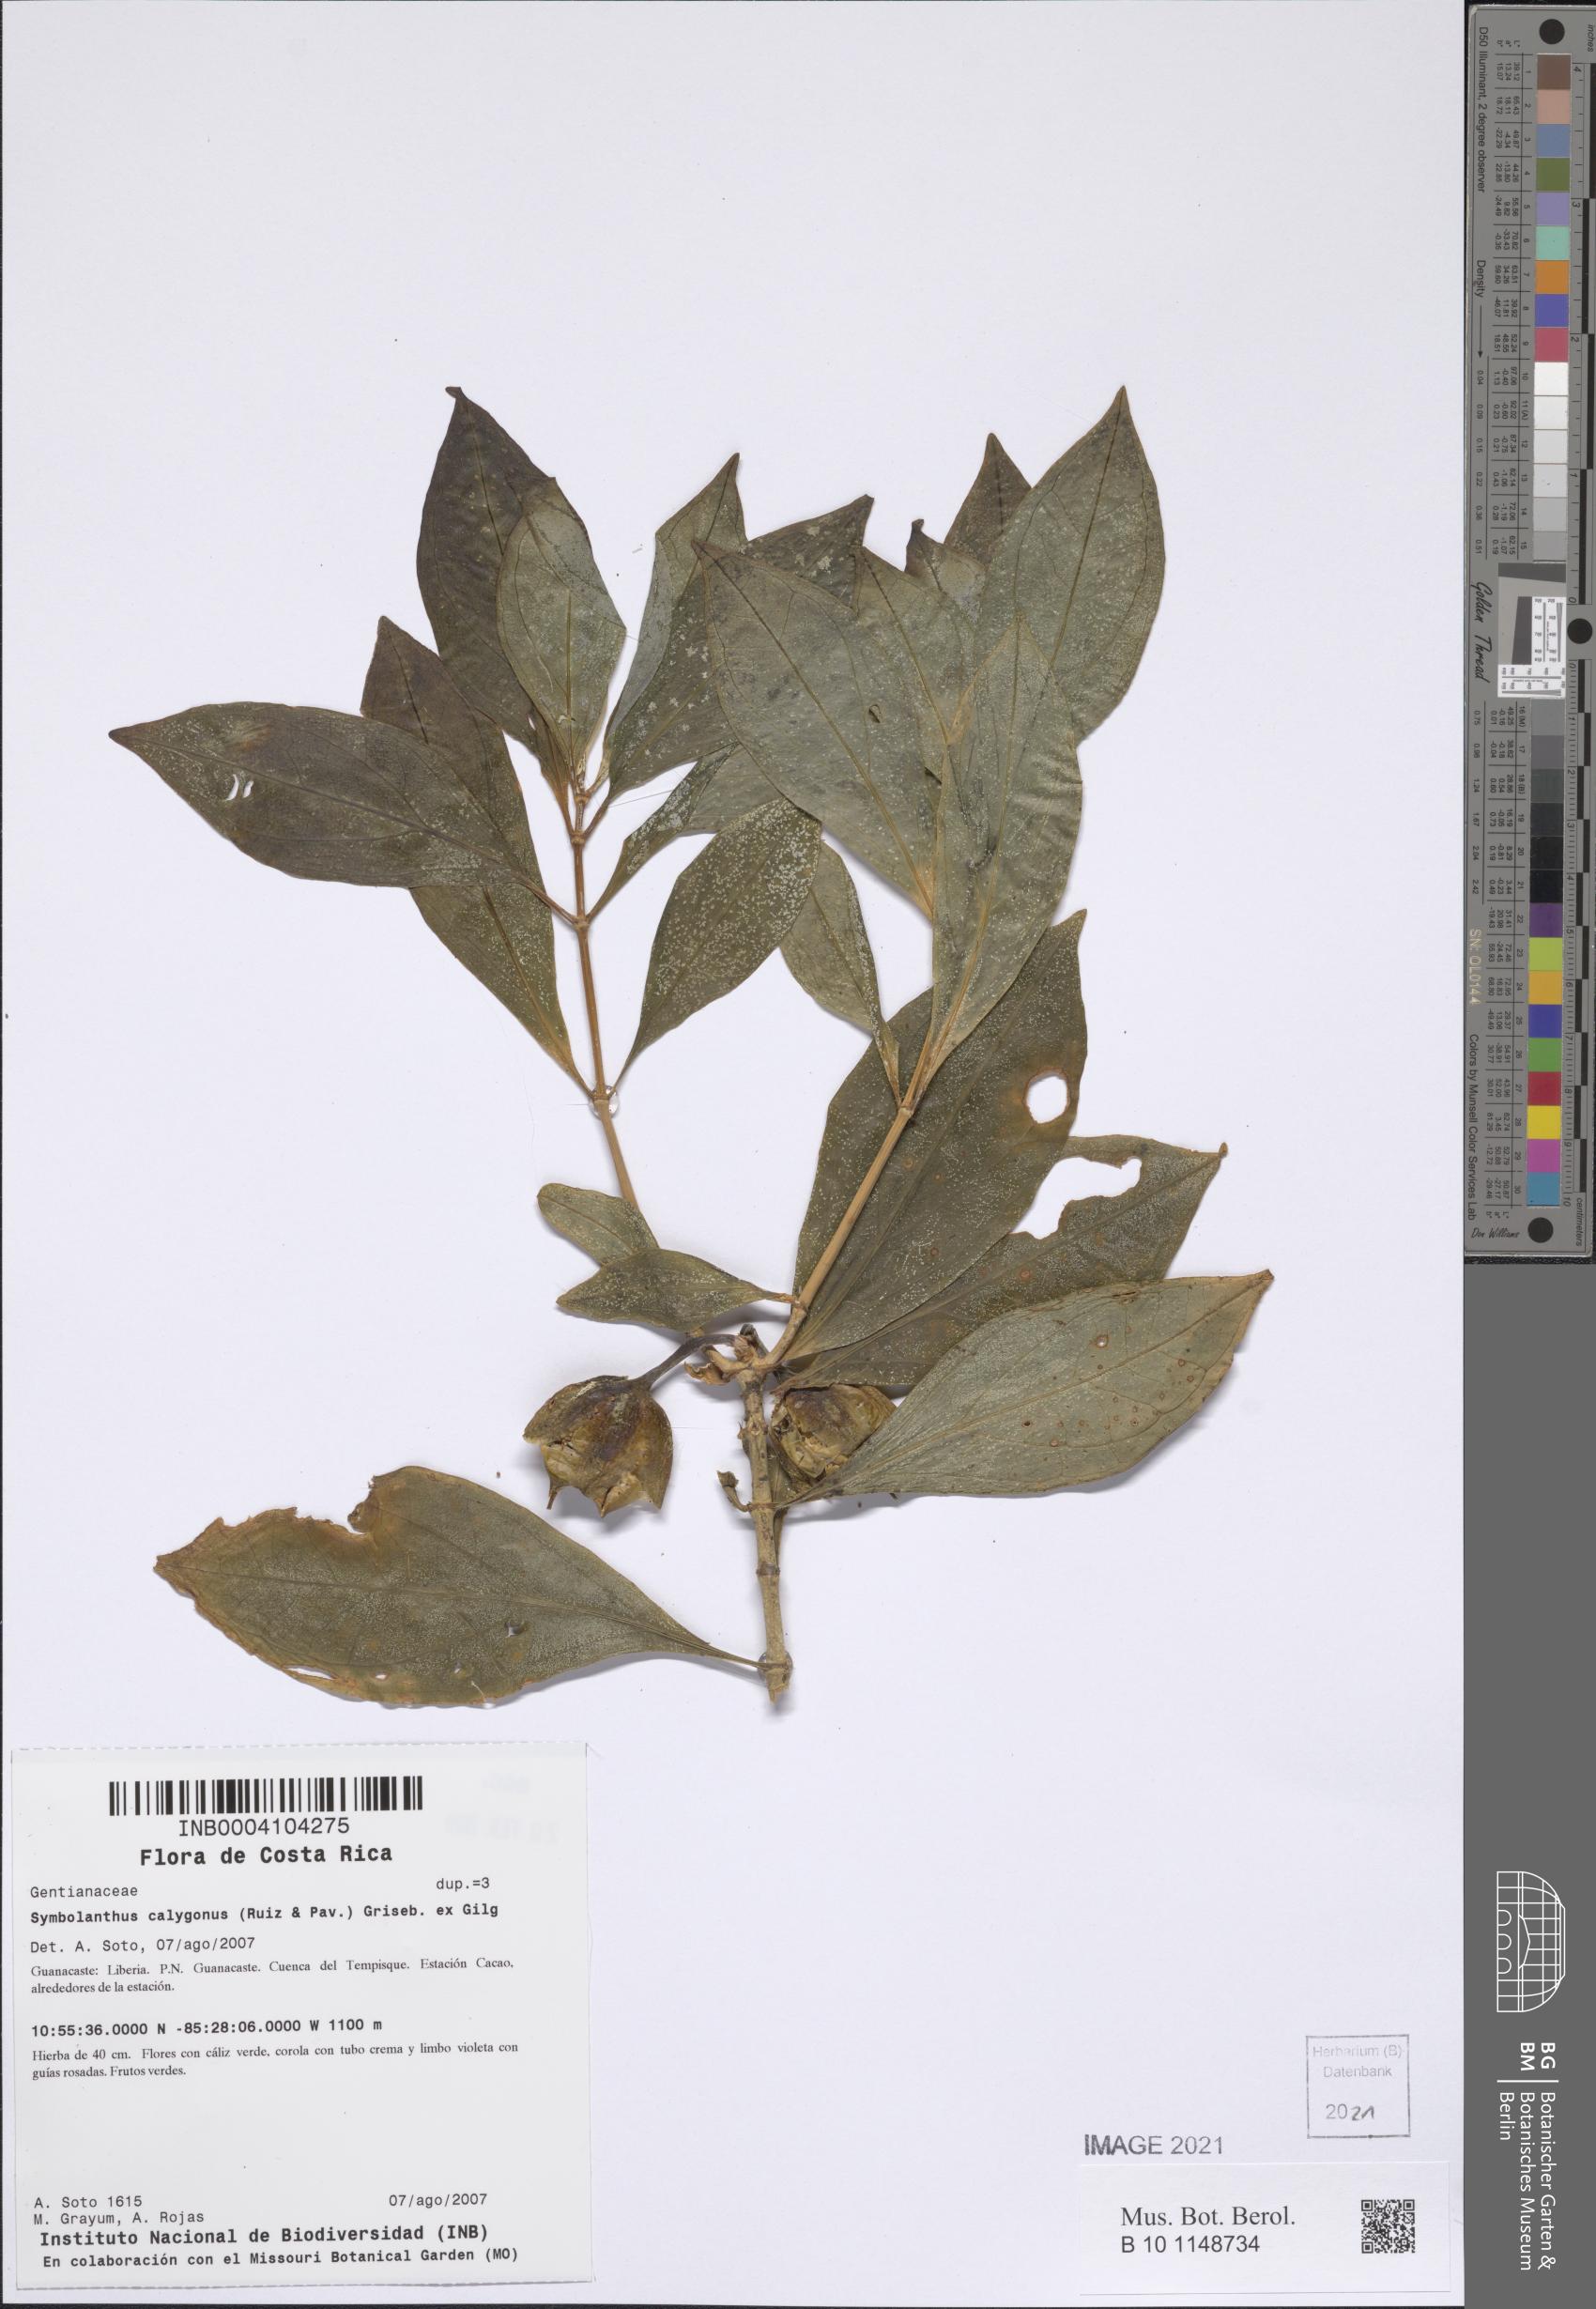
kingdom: Plantae
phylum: Tracheophyta
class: Magnoliopsida
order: Gentianales
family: Gentianaceae
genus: Symbolanthus
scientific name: Symbolanthus pulcherrimus
